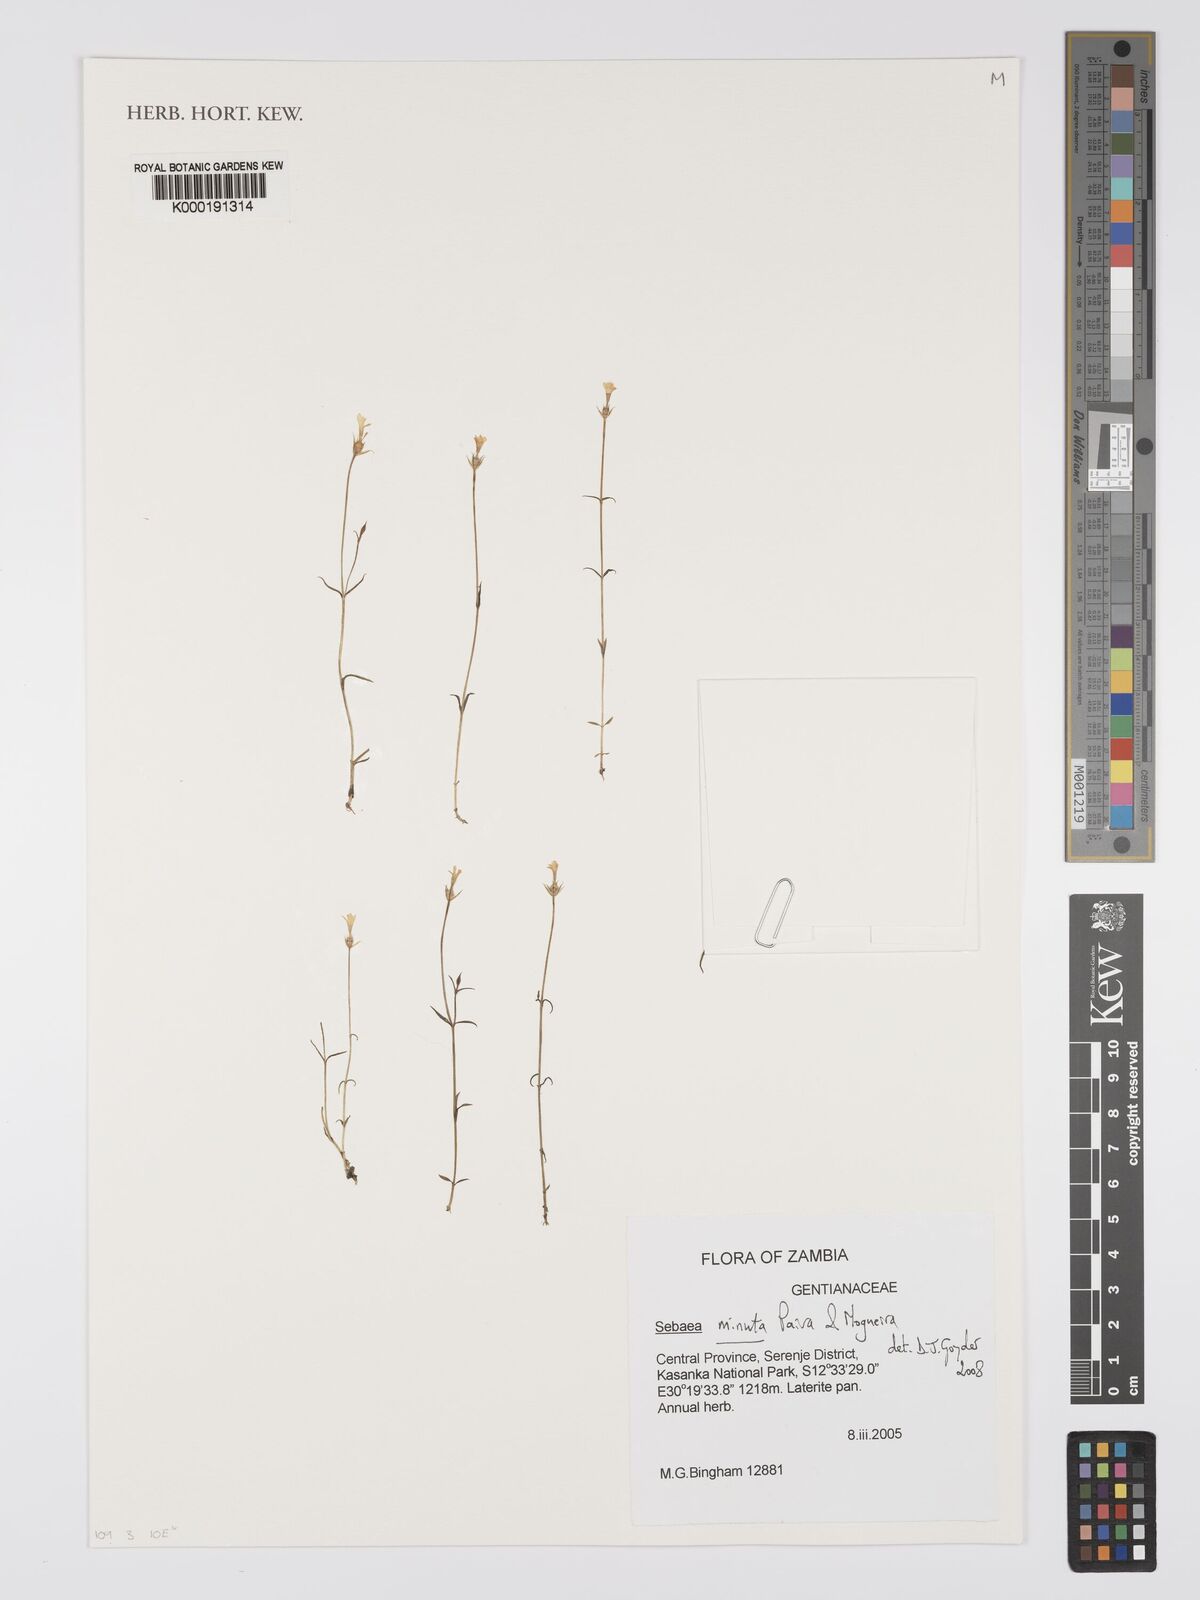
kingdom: Plantae
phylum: Tracheophyta
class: Magnoliopsida
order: Gentianales
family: Gentianaceae
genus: Exochaenium
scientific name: Exochaenium exiguum
